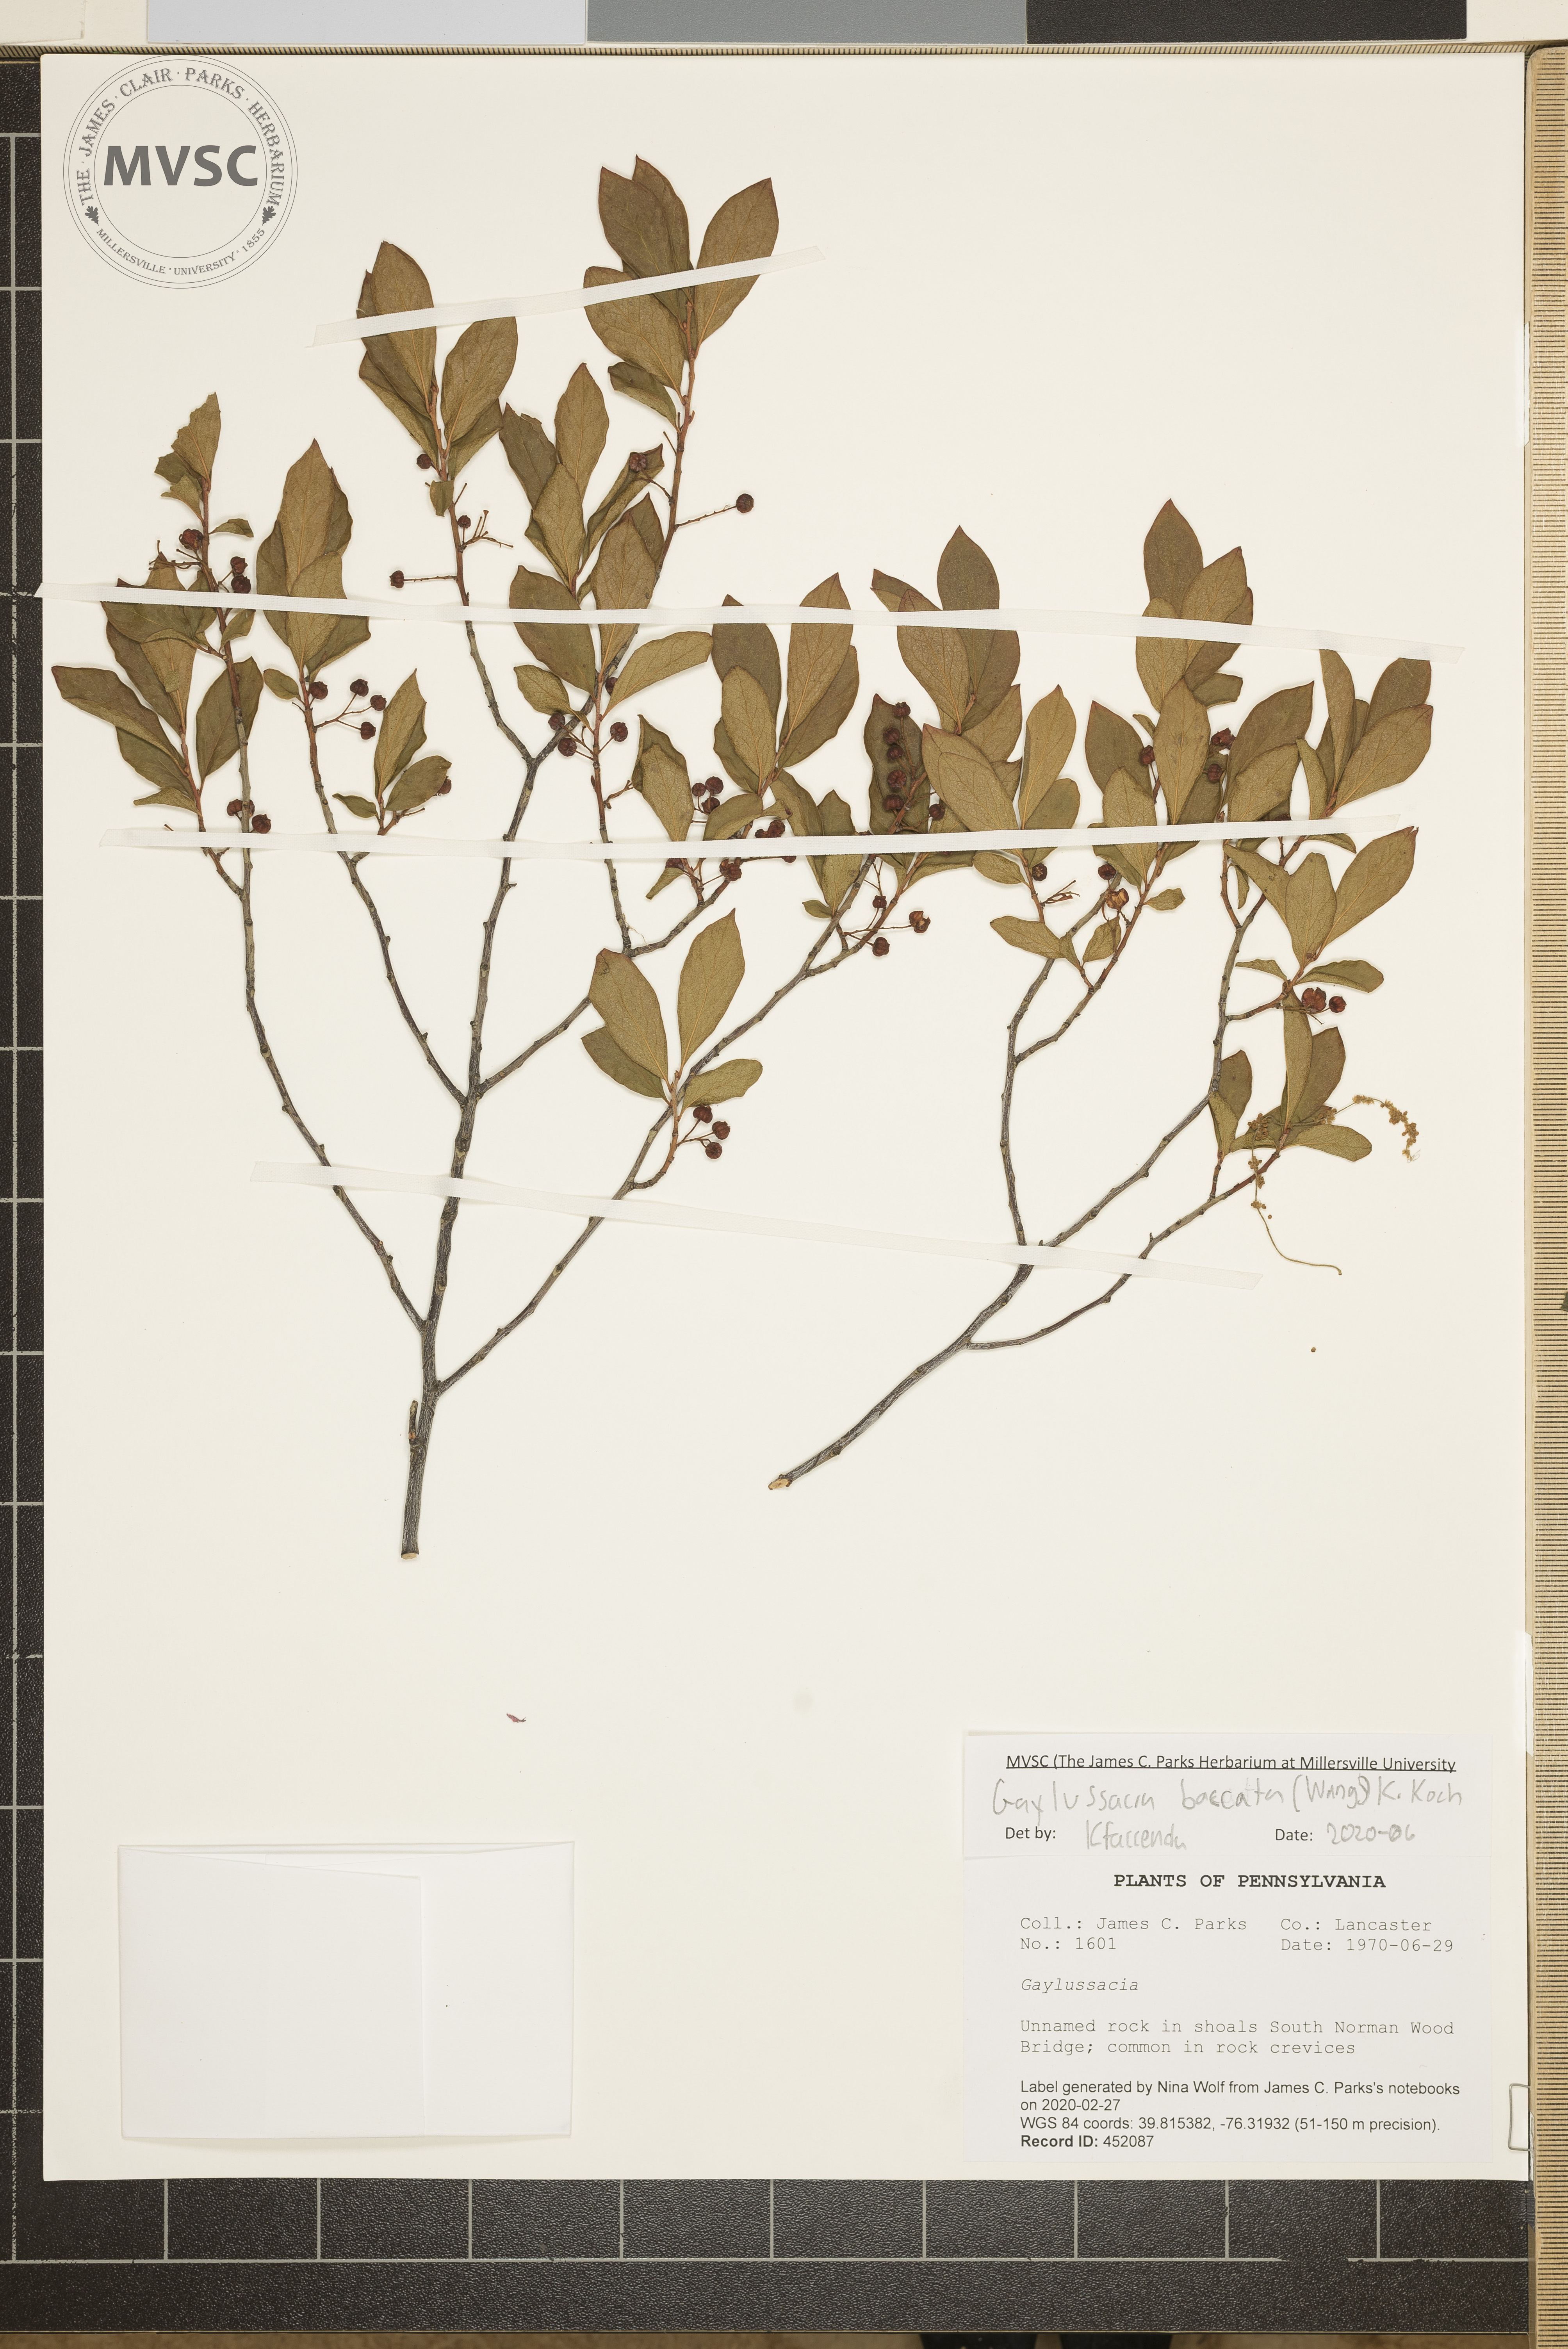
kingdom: Plantae
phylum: Tracheophyta
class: Magnoliopsida
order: Ericales
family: Ericaceae
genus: Gaylussacia
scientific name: Gaylussacia baccata
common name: Black huckleberry
